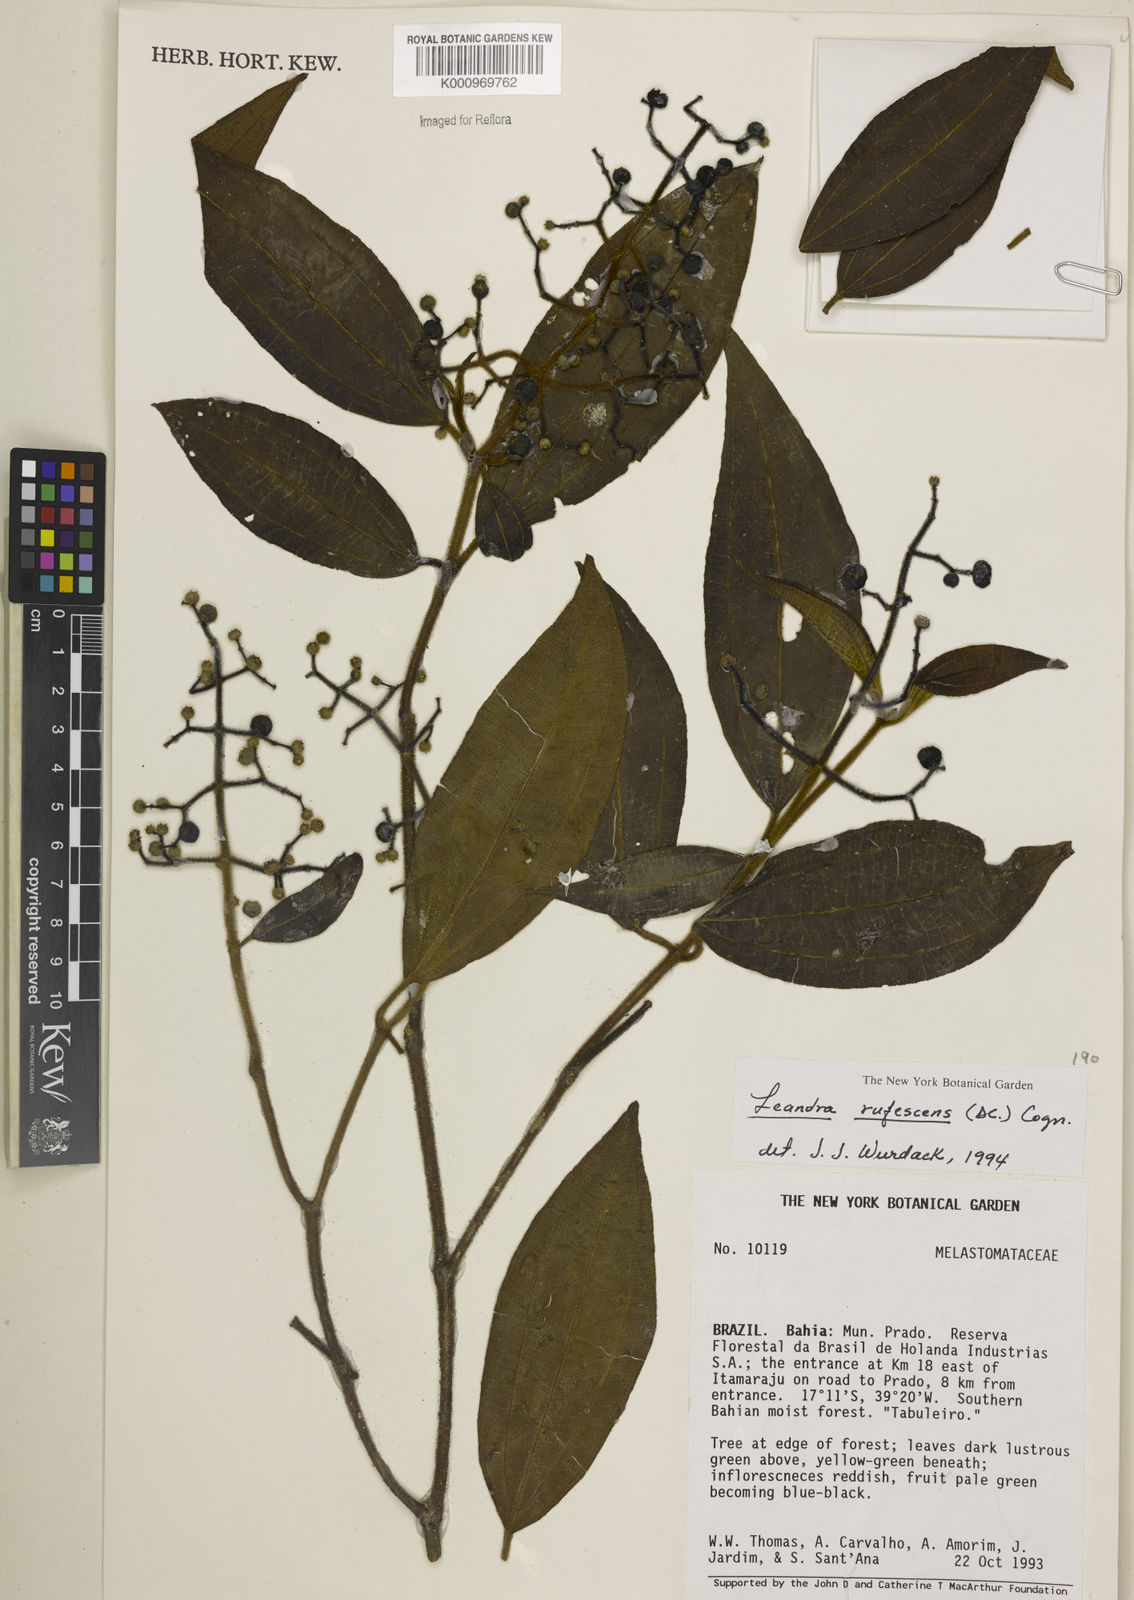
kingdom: Plantae
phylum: Tracheophyta
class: Magnoliopsida
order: Myrtales
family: Melastomataceae
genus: Miconia
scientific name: Miconia asperiuscula
